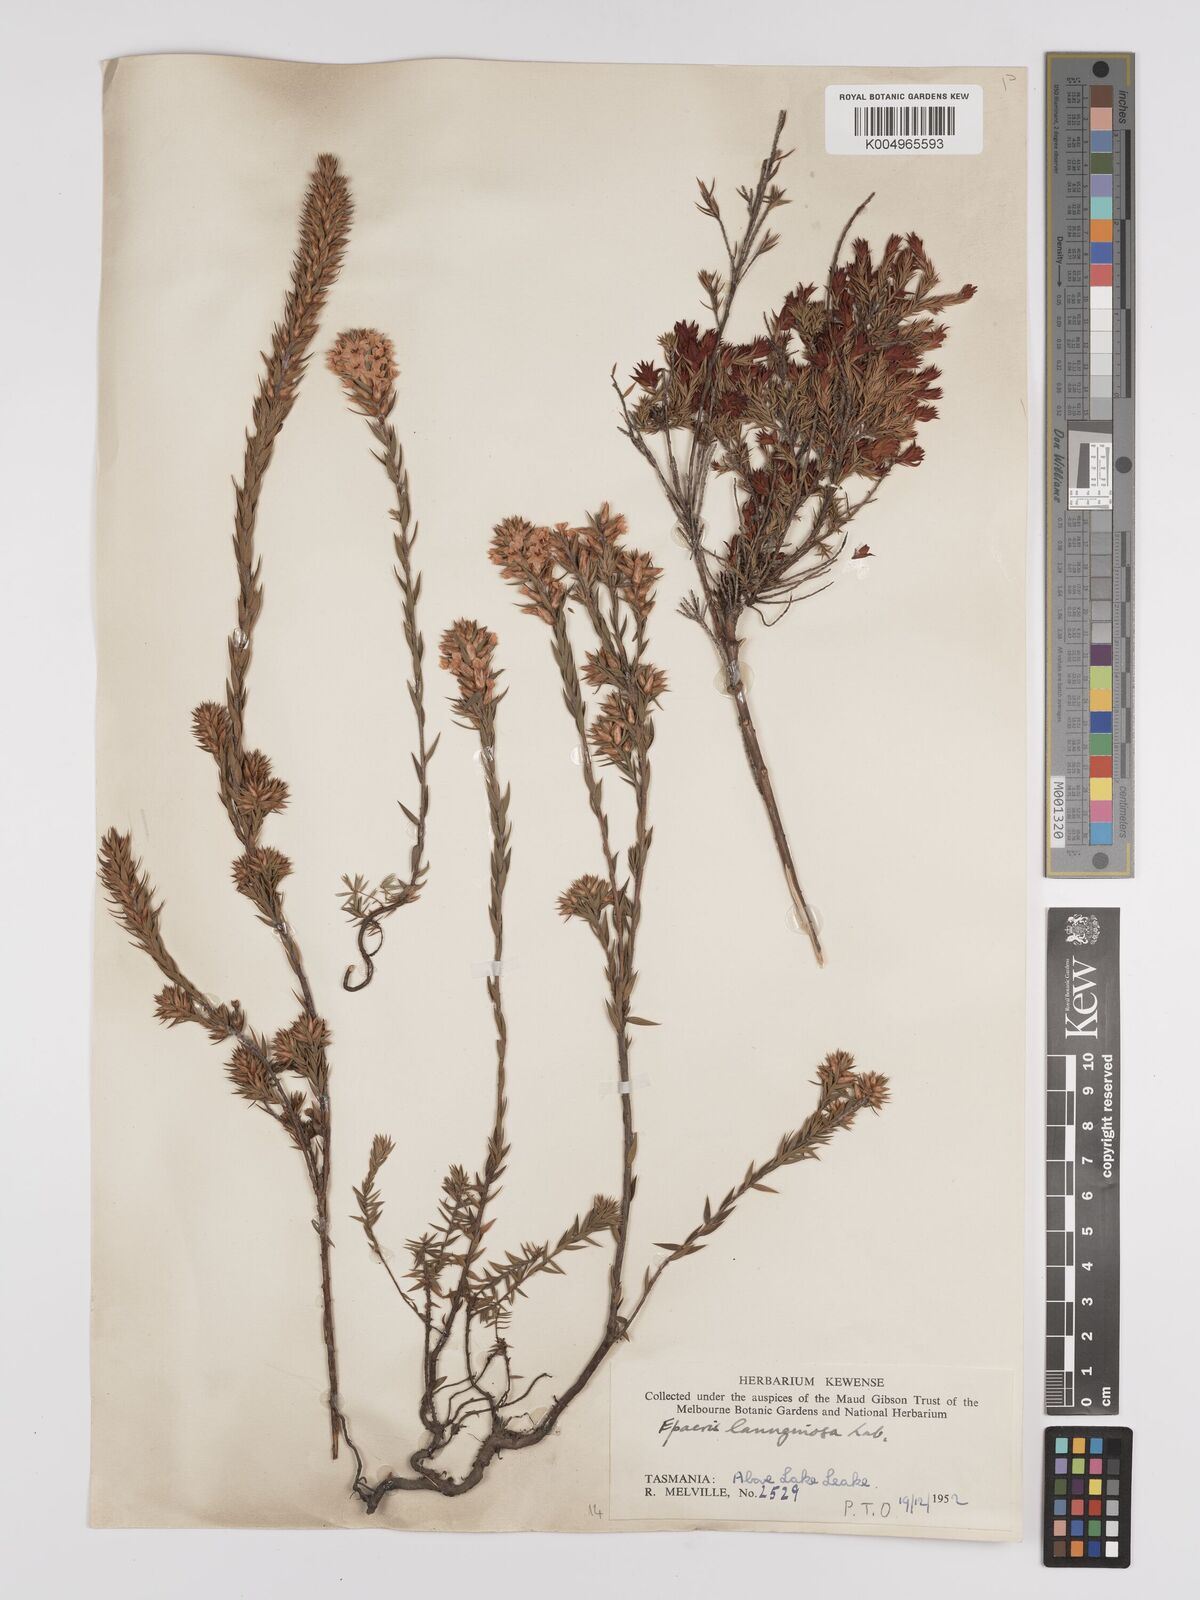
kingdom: Plantae
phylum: Tracheophyta
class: Magnoliopsida
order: Ericales
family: Ericaceae
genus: Epacris
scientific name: Epacris lanuginosa
